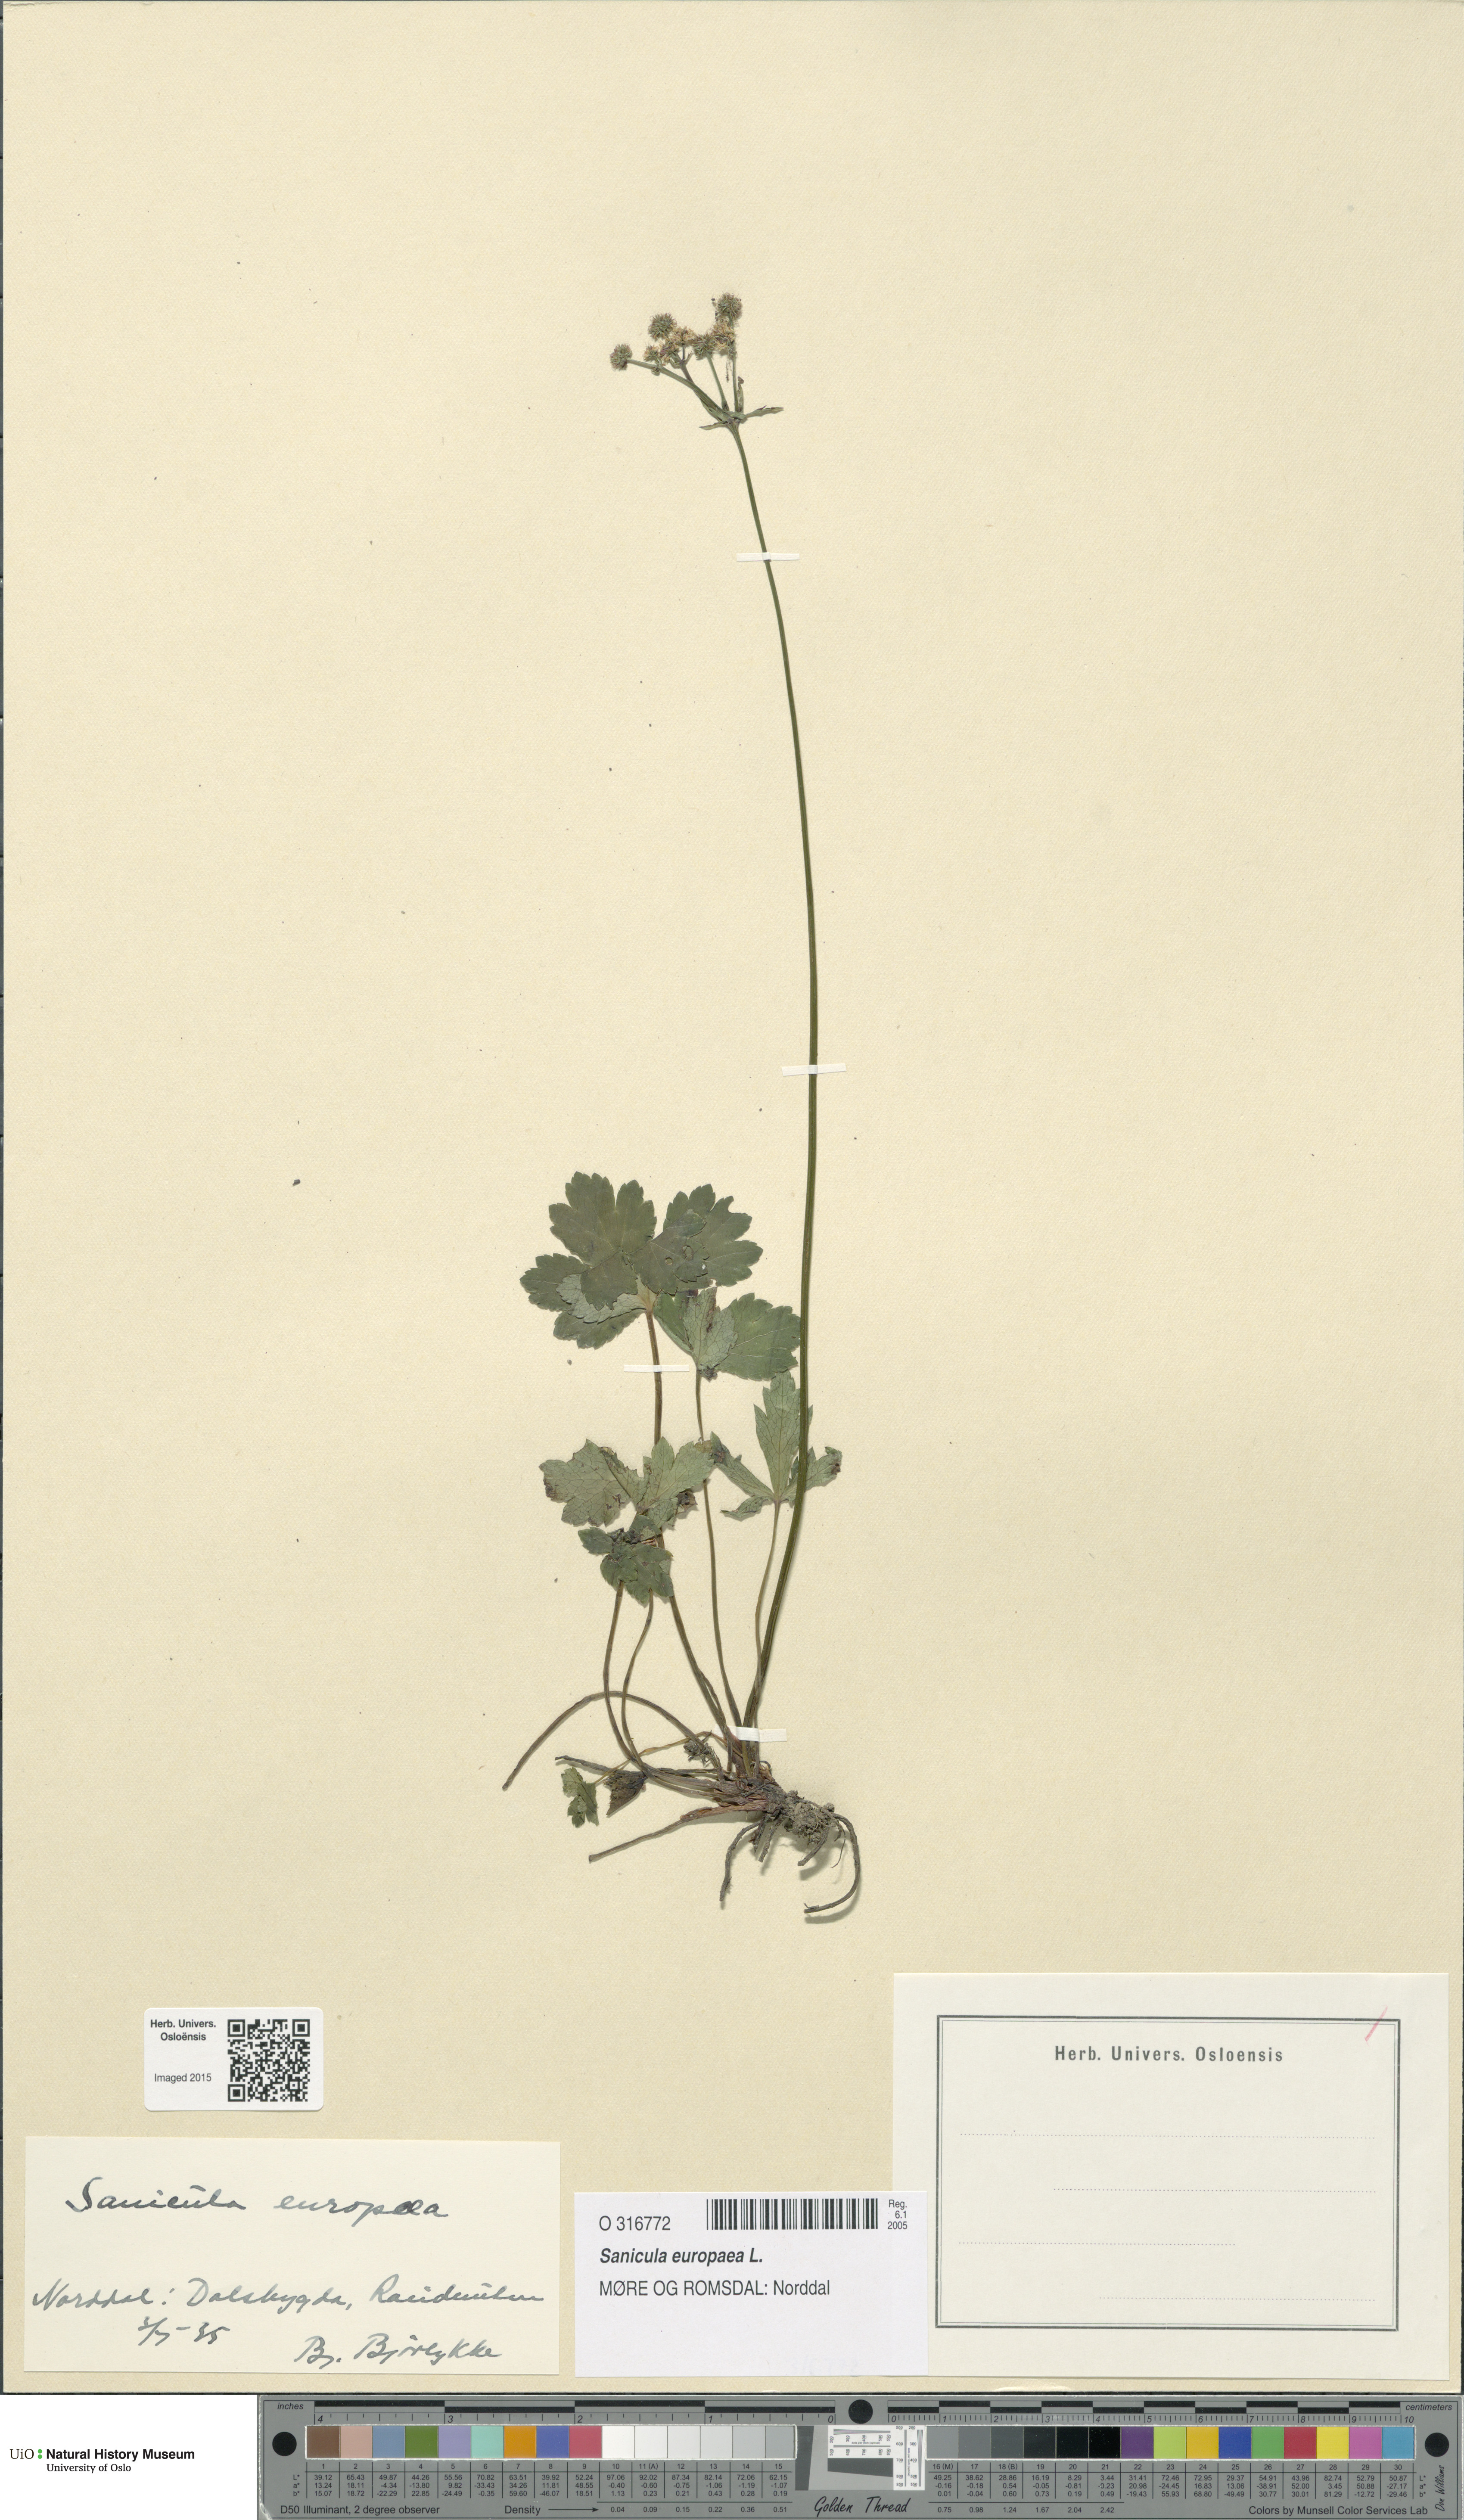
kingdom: Plantae
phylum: Tracheophyta
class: Magnoliopsida
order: Apiales
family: Apiaceae
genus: Sanicula
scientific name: Sanicula europaea
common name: Sanicle
